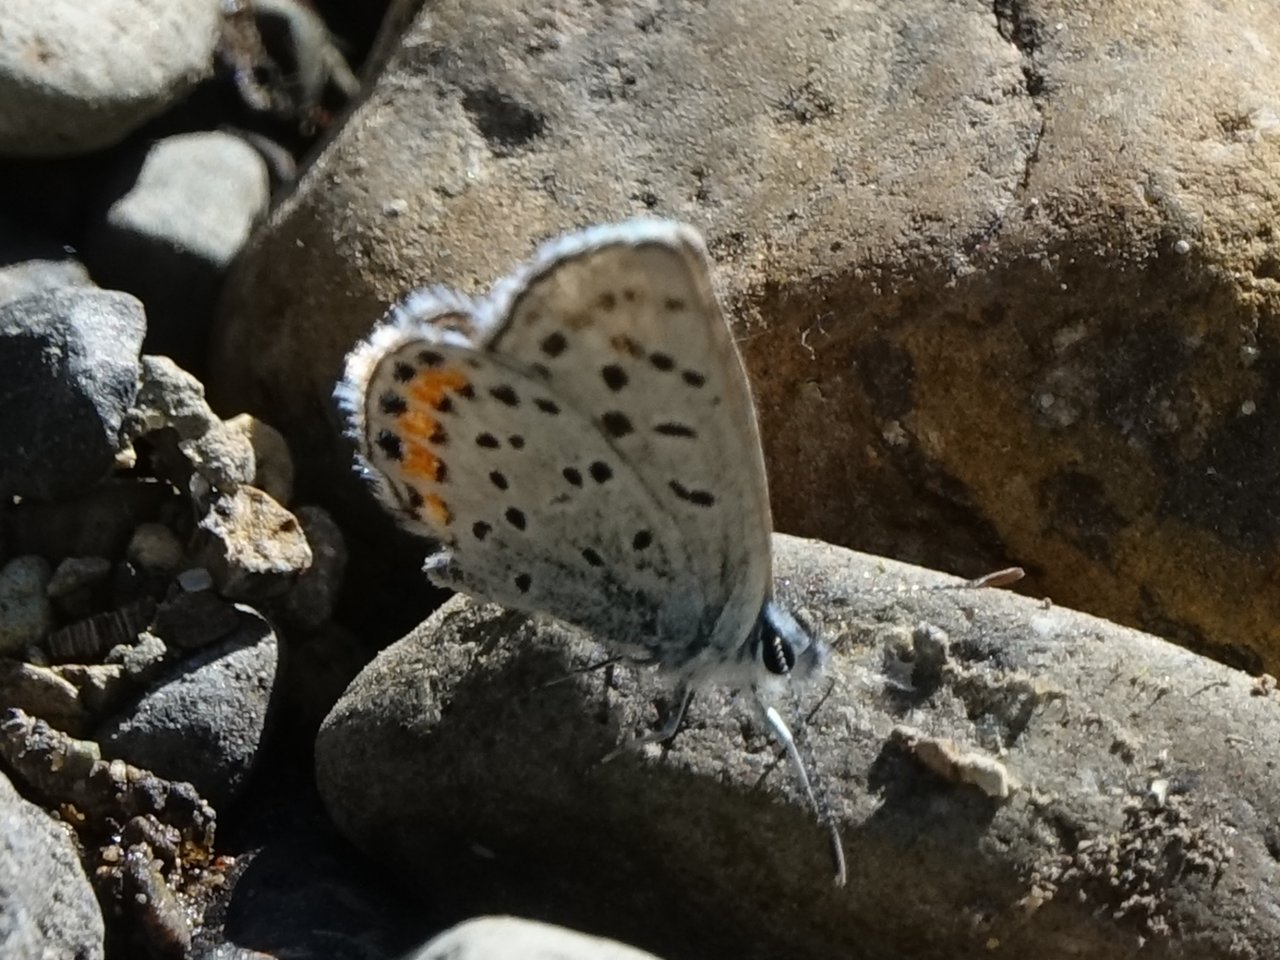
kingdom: Animalia
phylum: Arthropoda
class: Insecta
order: Lepidoptera
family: Lycaenidae
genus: Plebejus
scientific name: Plebejus acmon
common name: Acmon Blue
